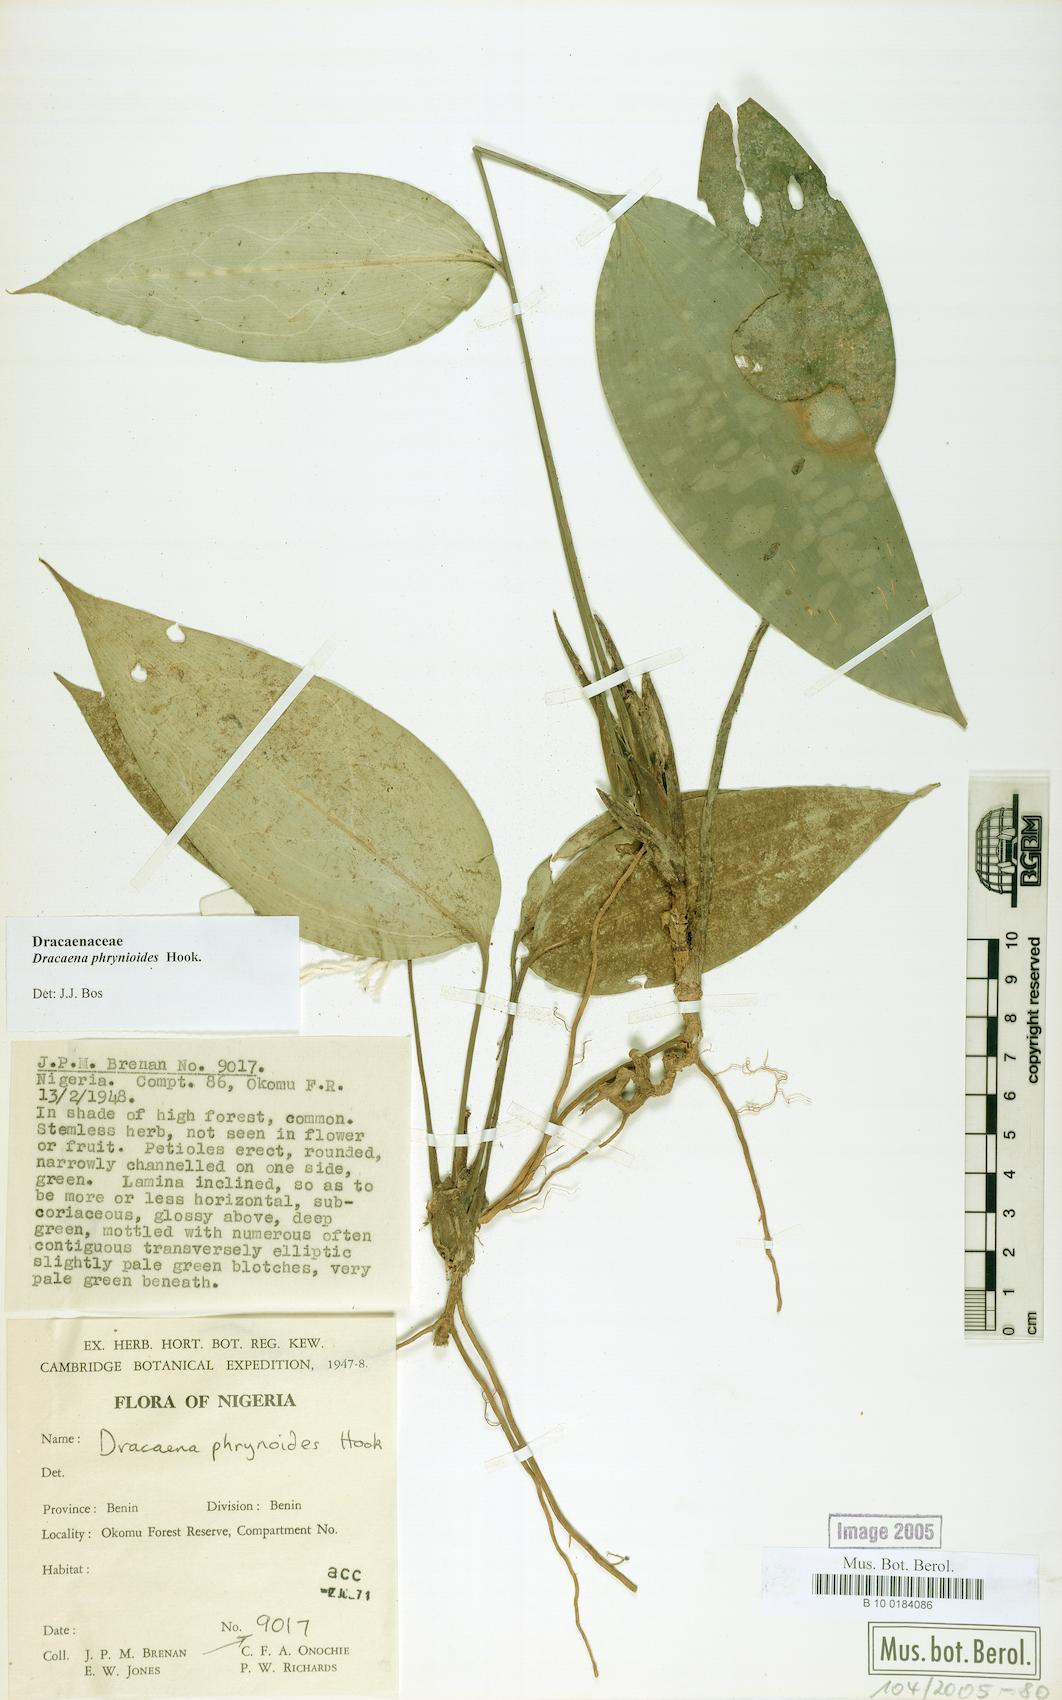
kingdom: Plantae
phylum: Tracheophyta
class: Liliopsida
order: Asparagales
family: Asparagaceae
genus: Dracaena
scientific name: Dracaena phrynioides
